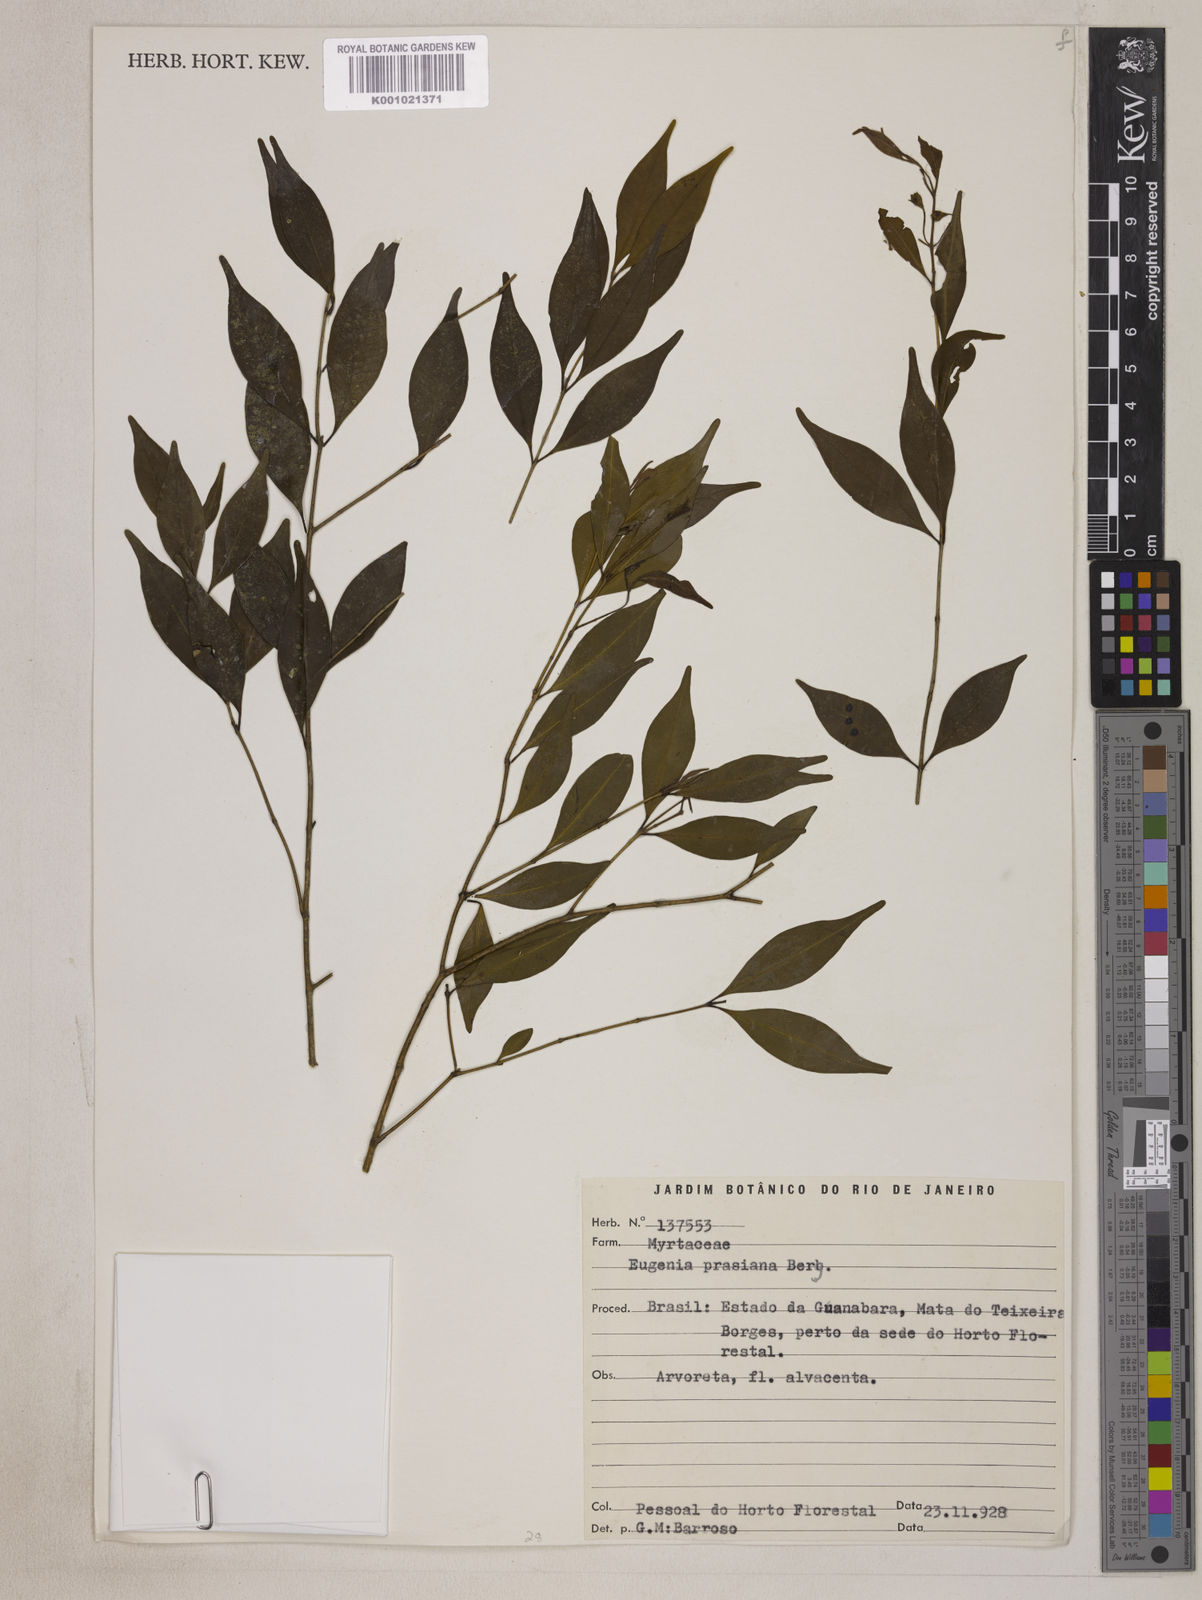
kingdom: Plantae
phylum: Tracheophyta
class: Magnoliopsida
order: Myrtales
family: Myrtaceae
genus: Eugenia
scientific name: Eugenia prasina
